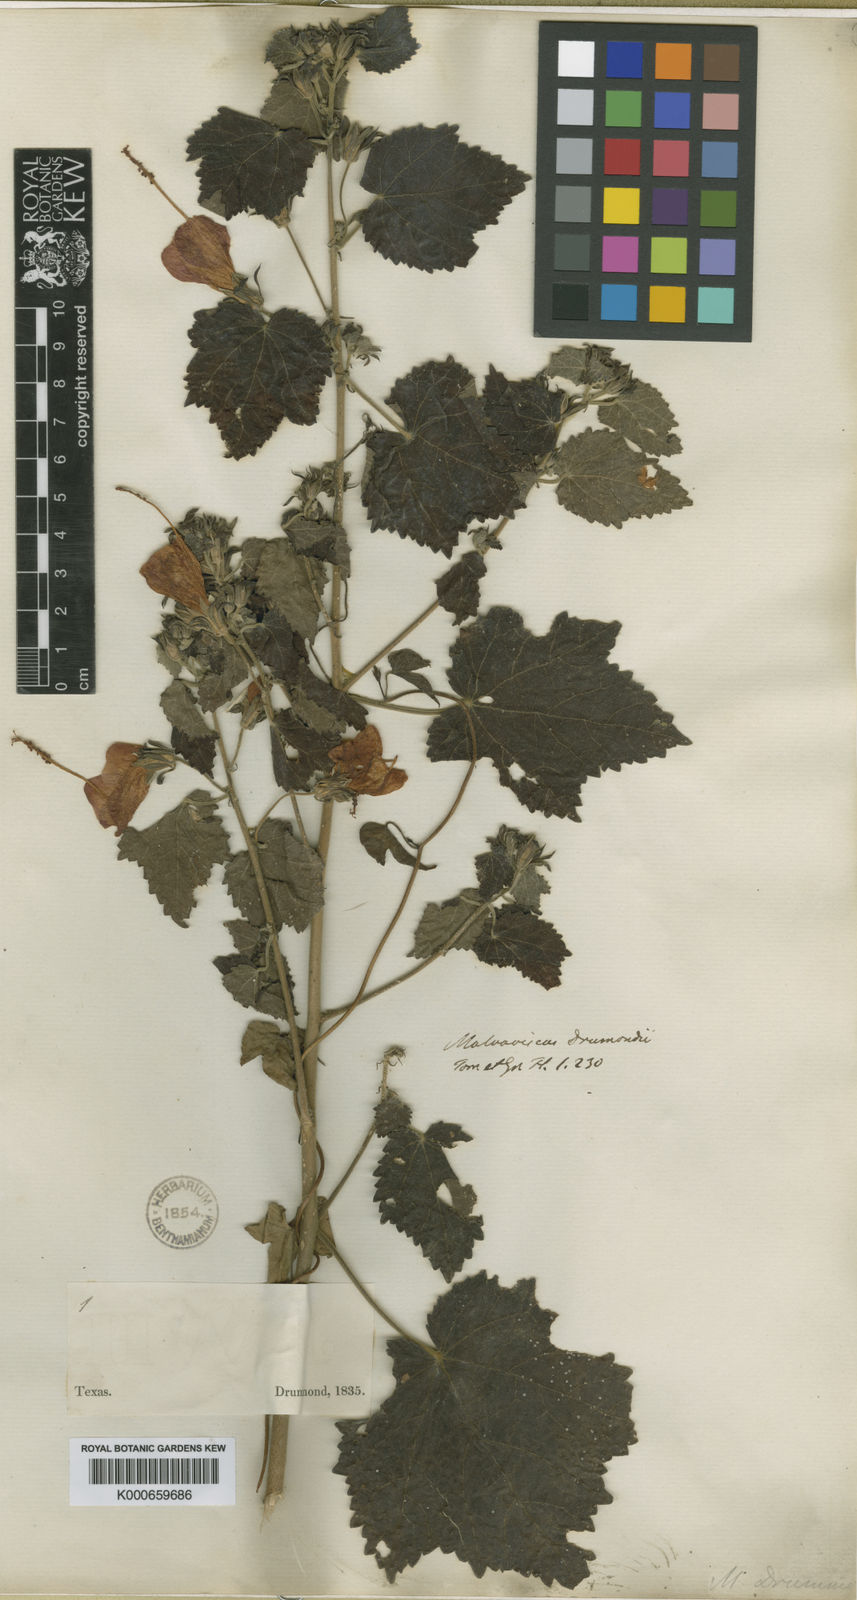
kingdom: Plantae
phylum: Tracheophyta
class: Magnoliopsida
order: Malvales
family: Malvaceae
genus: Malvaviscus
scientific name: Malvaviscus arboreus
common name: Wax mallow
